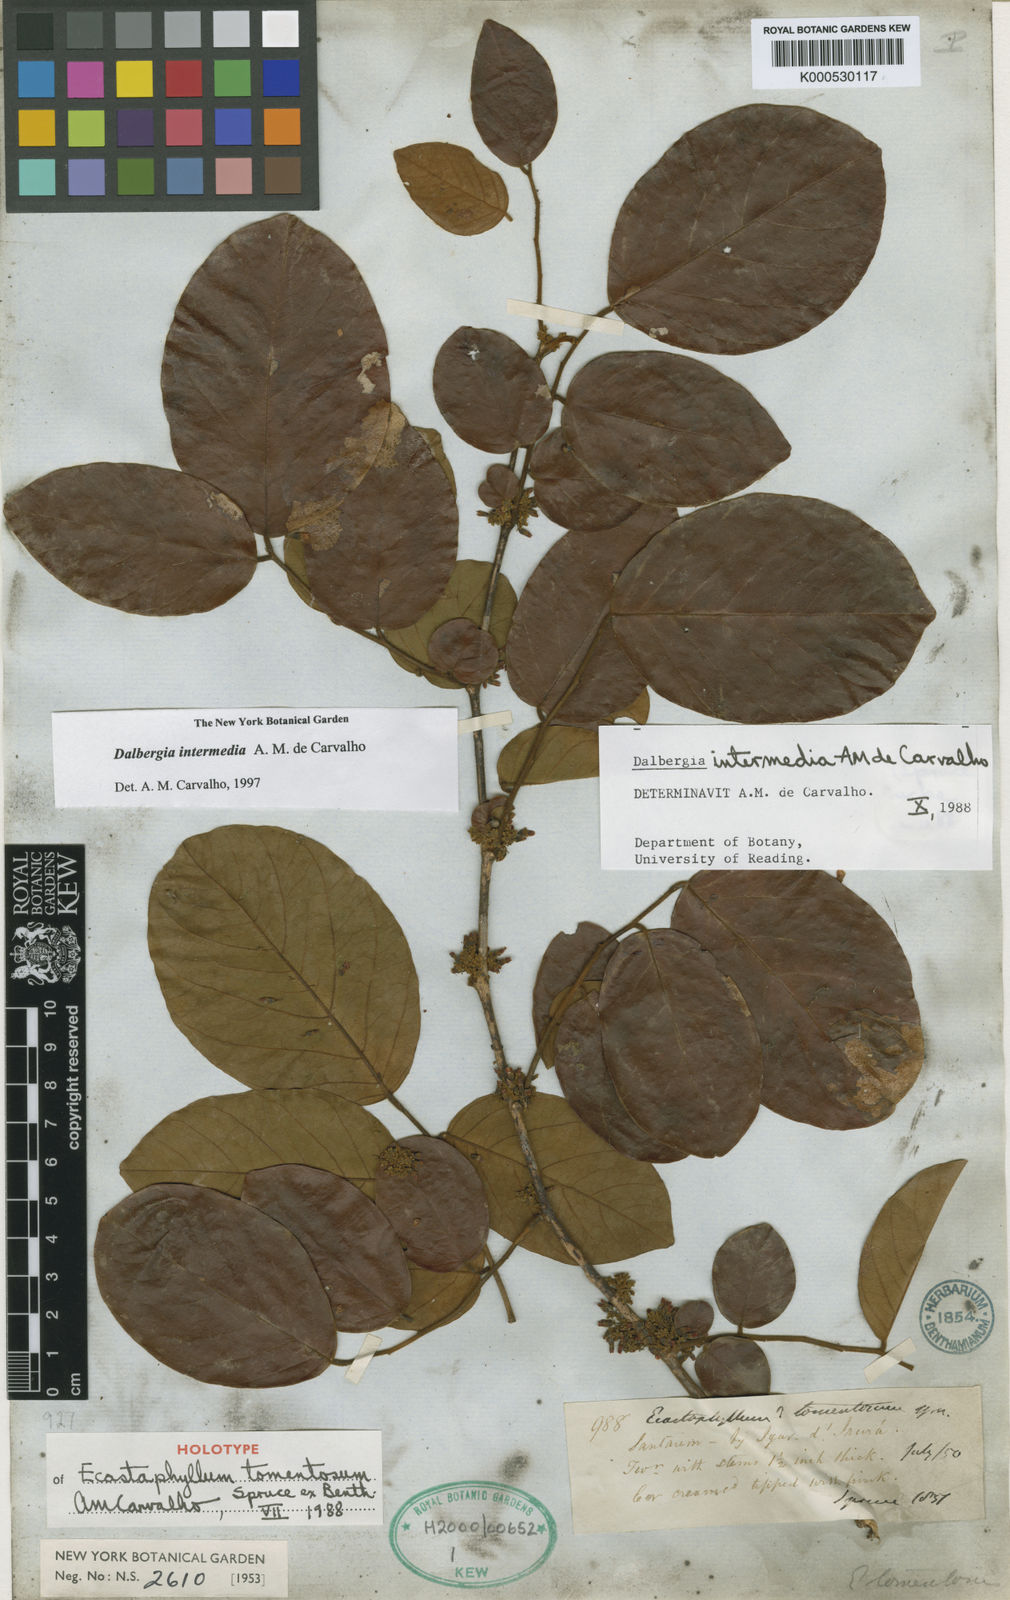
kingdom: Plantae
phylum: Tracheophyta
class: Magnoliopsida
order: Fabales
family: Fabaceae
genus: Dalbergia
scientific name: Dalbergia intermedia
